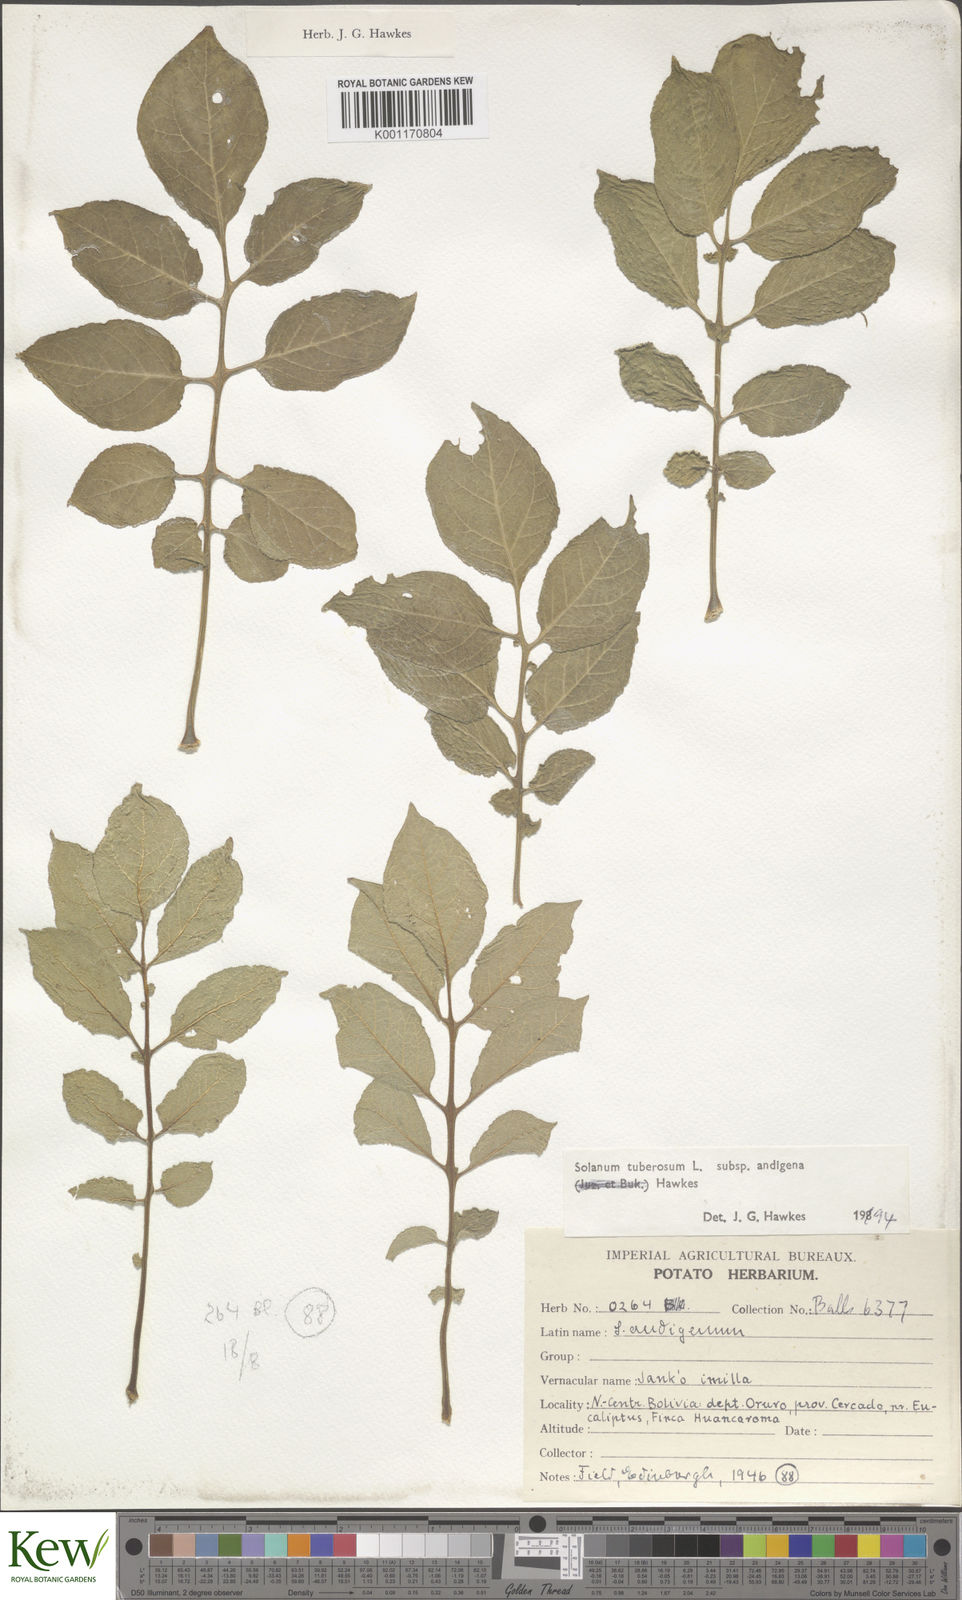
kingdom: Plantae
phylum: Tracheophyta
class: Magnoliopsida
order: Solanales
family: Solanaceae
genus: Solanum
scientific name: Solanum tuberosum
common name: Potato
